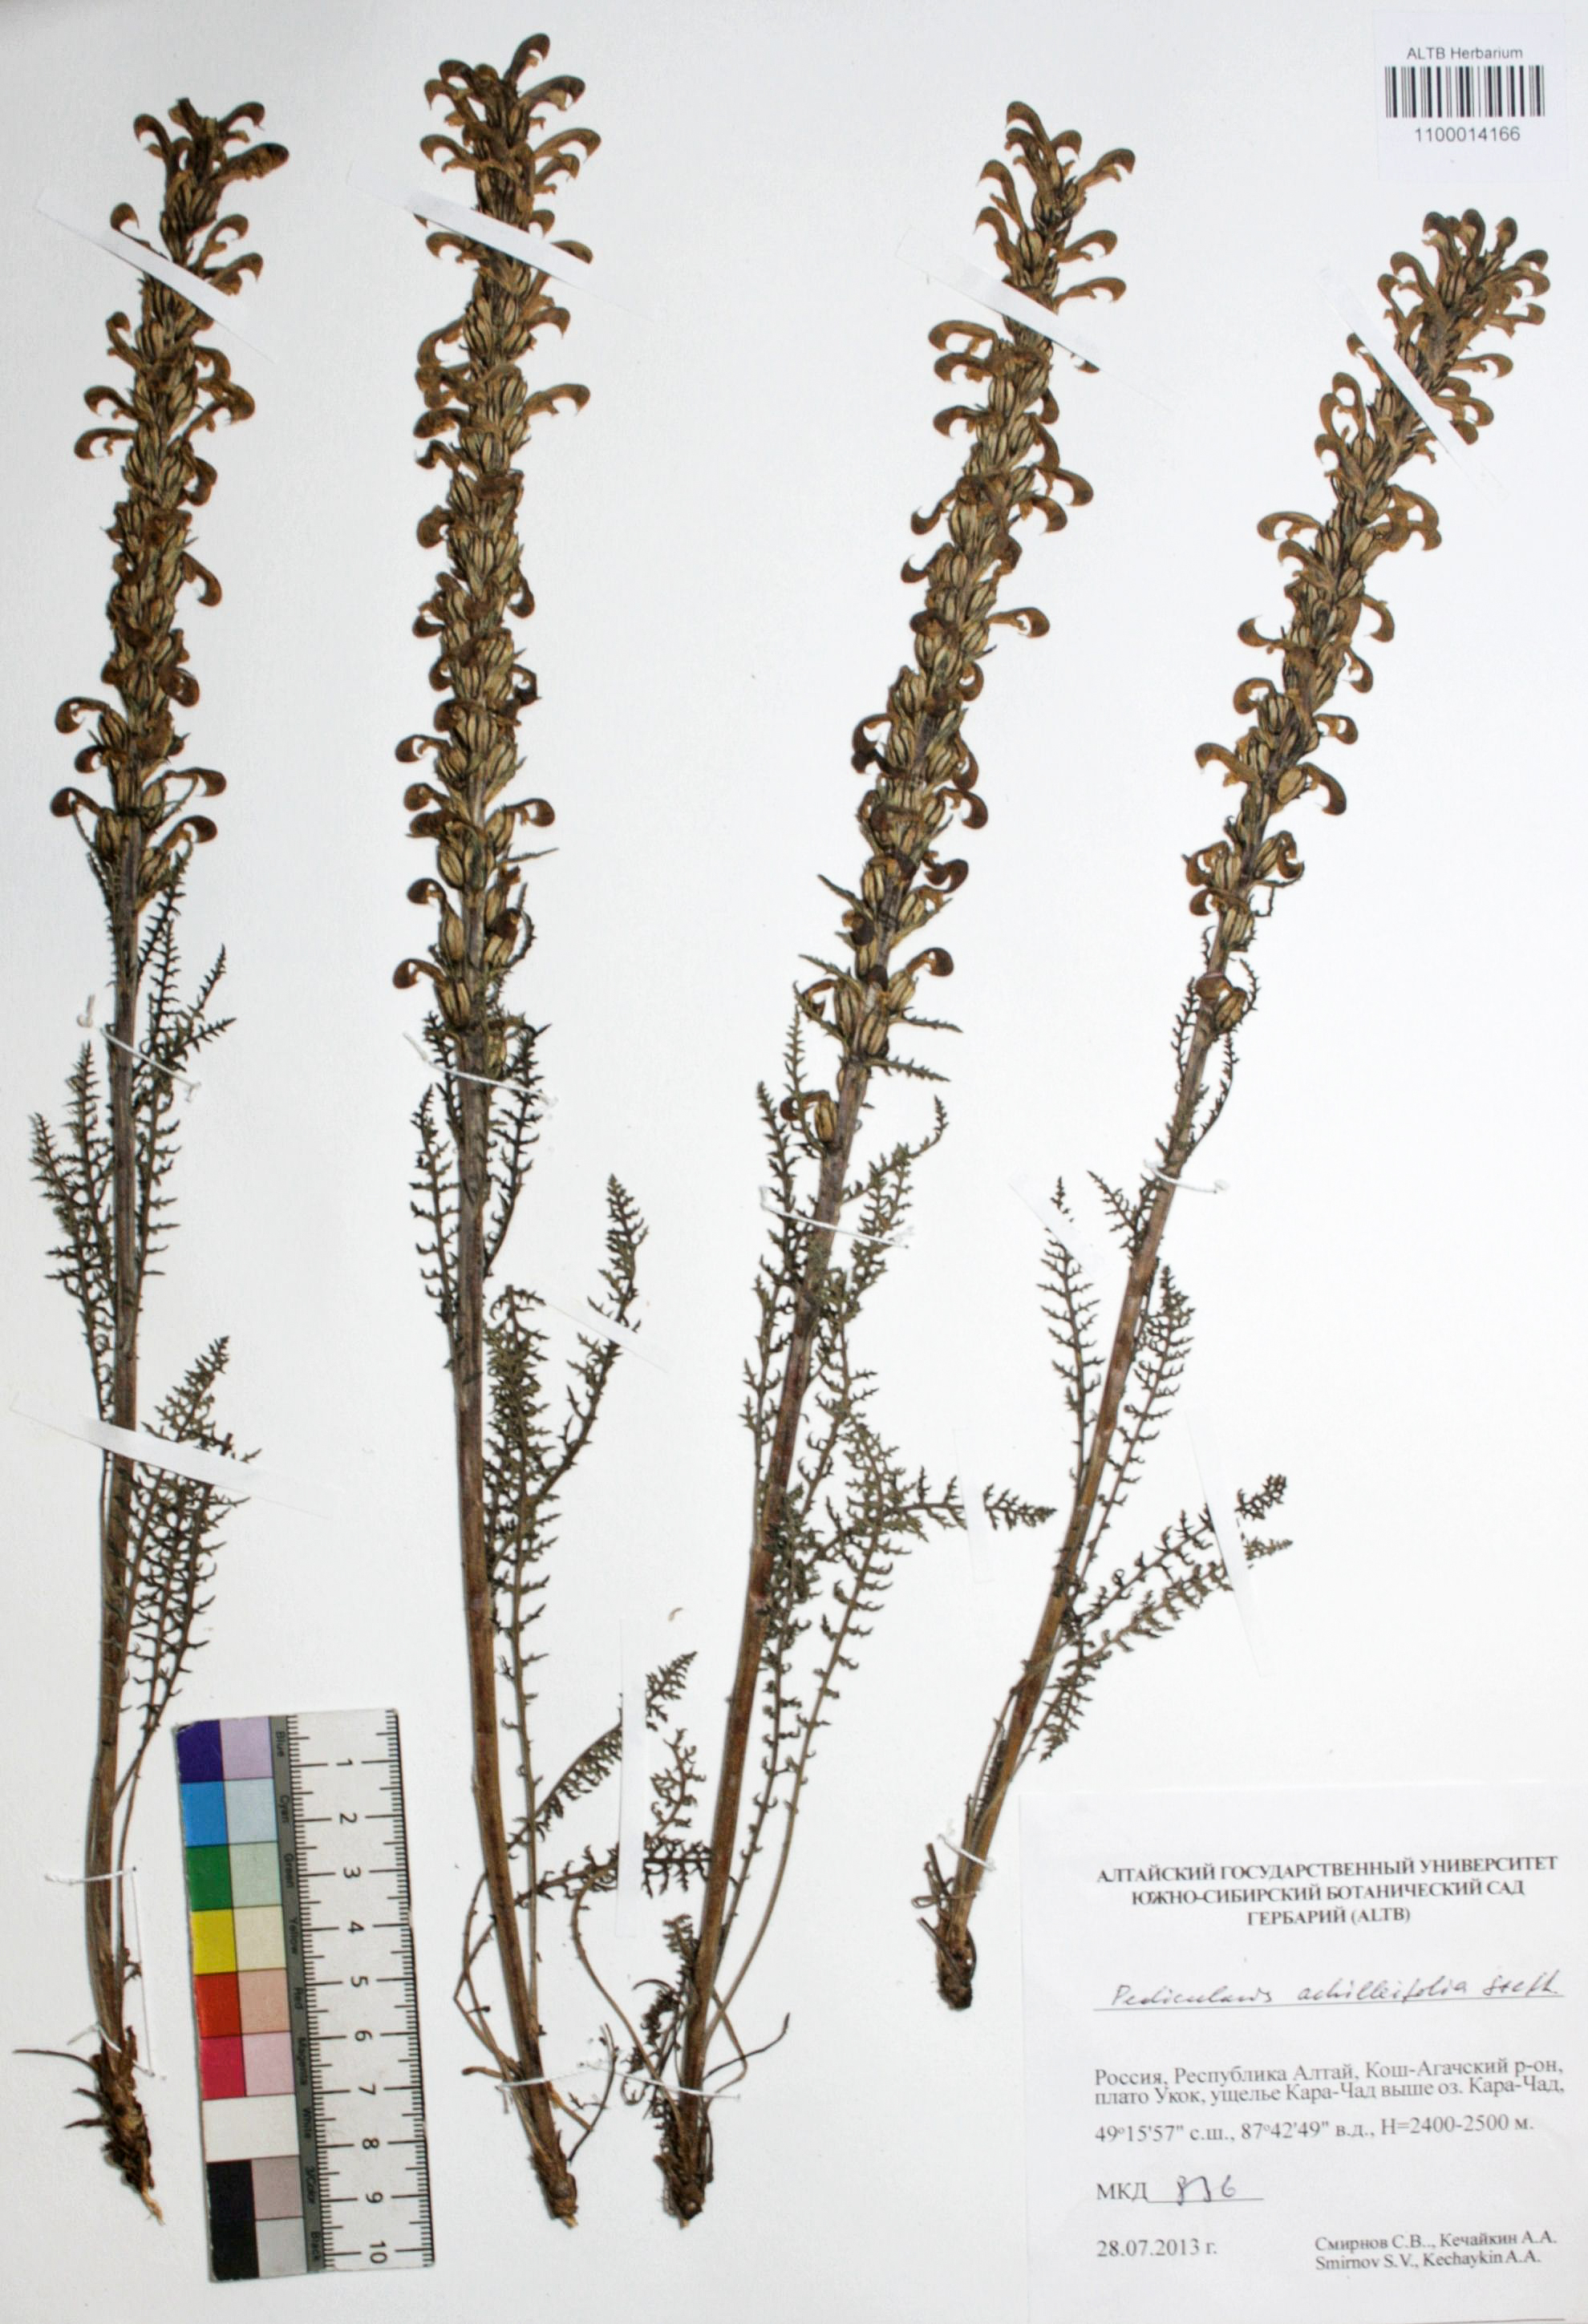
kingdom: Plantae
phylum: Tracheophyta
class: Magnoliopsida
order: Lamiales
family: Orobanchaceae
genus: Pedicularis
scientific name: Pedicularis achilleifolia
